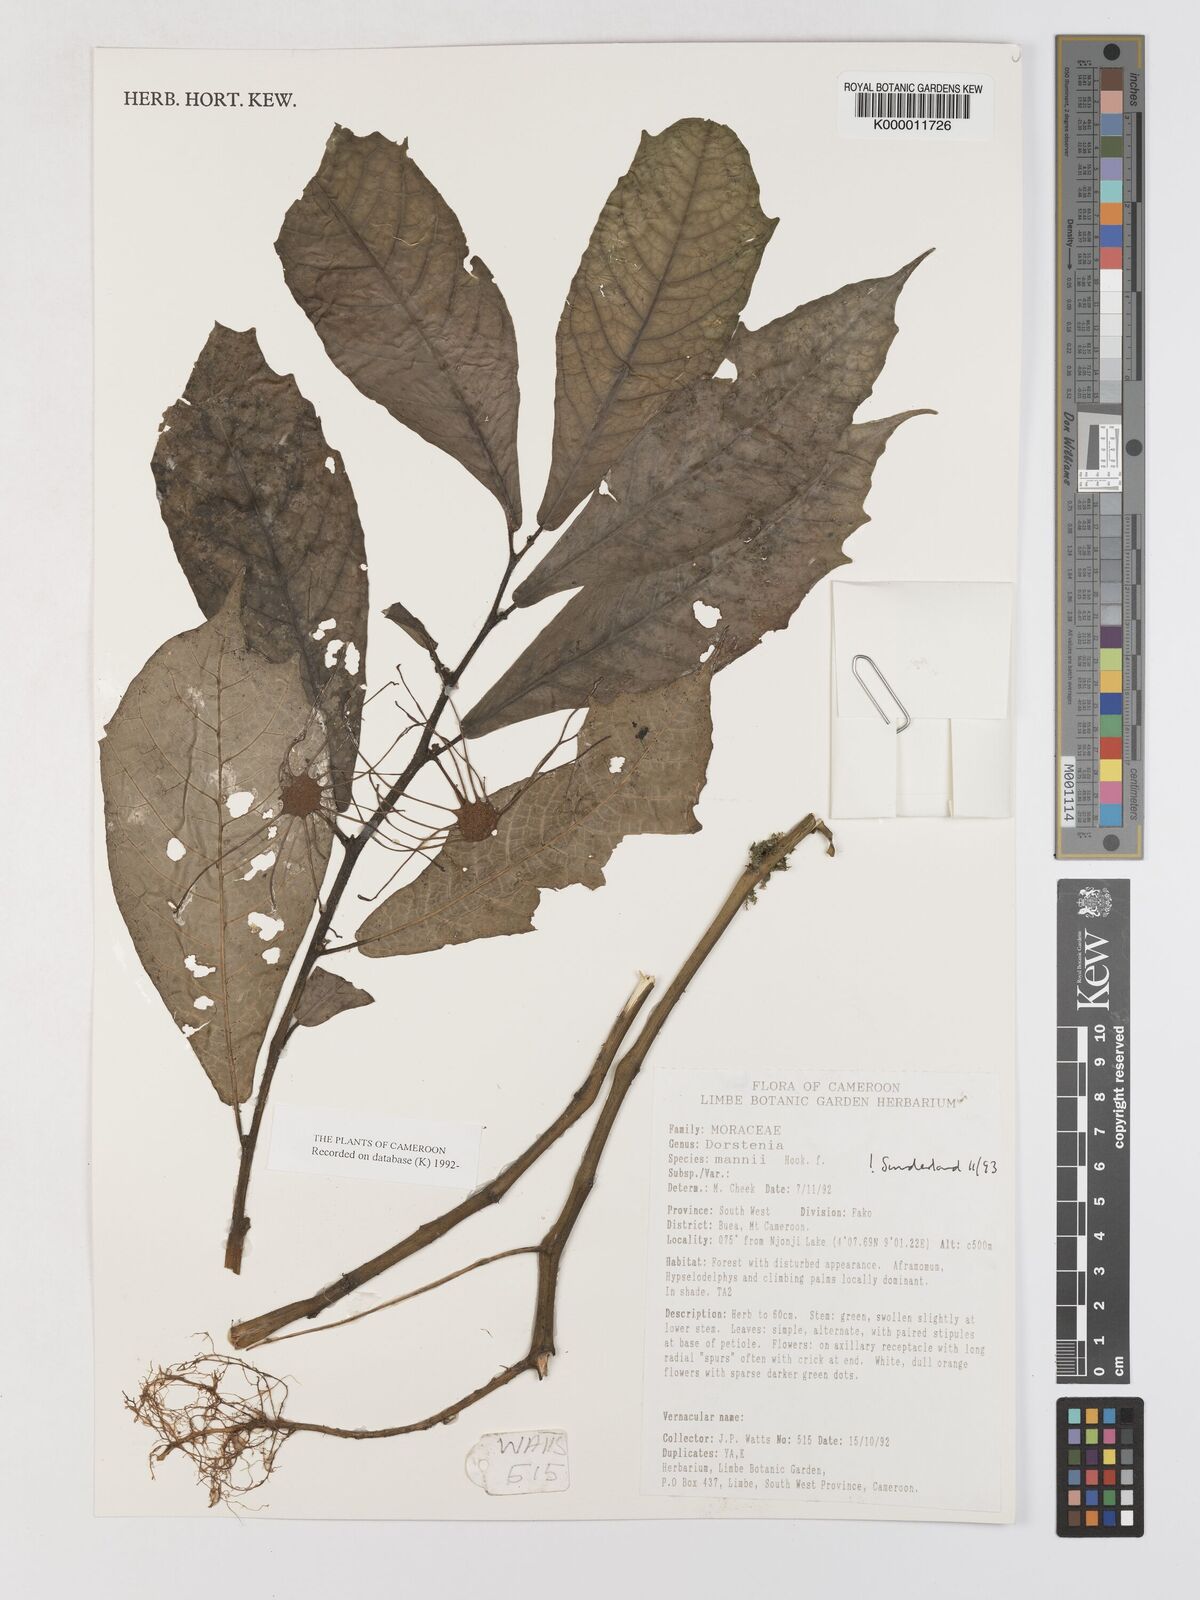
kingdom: Plantae
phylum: Tracheophyta
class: Magnoliopsida
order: Rosales
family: Moraceae
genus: Dorstenia
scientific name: Dorstenia mannii
